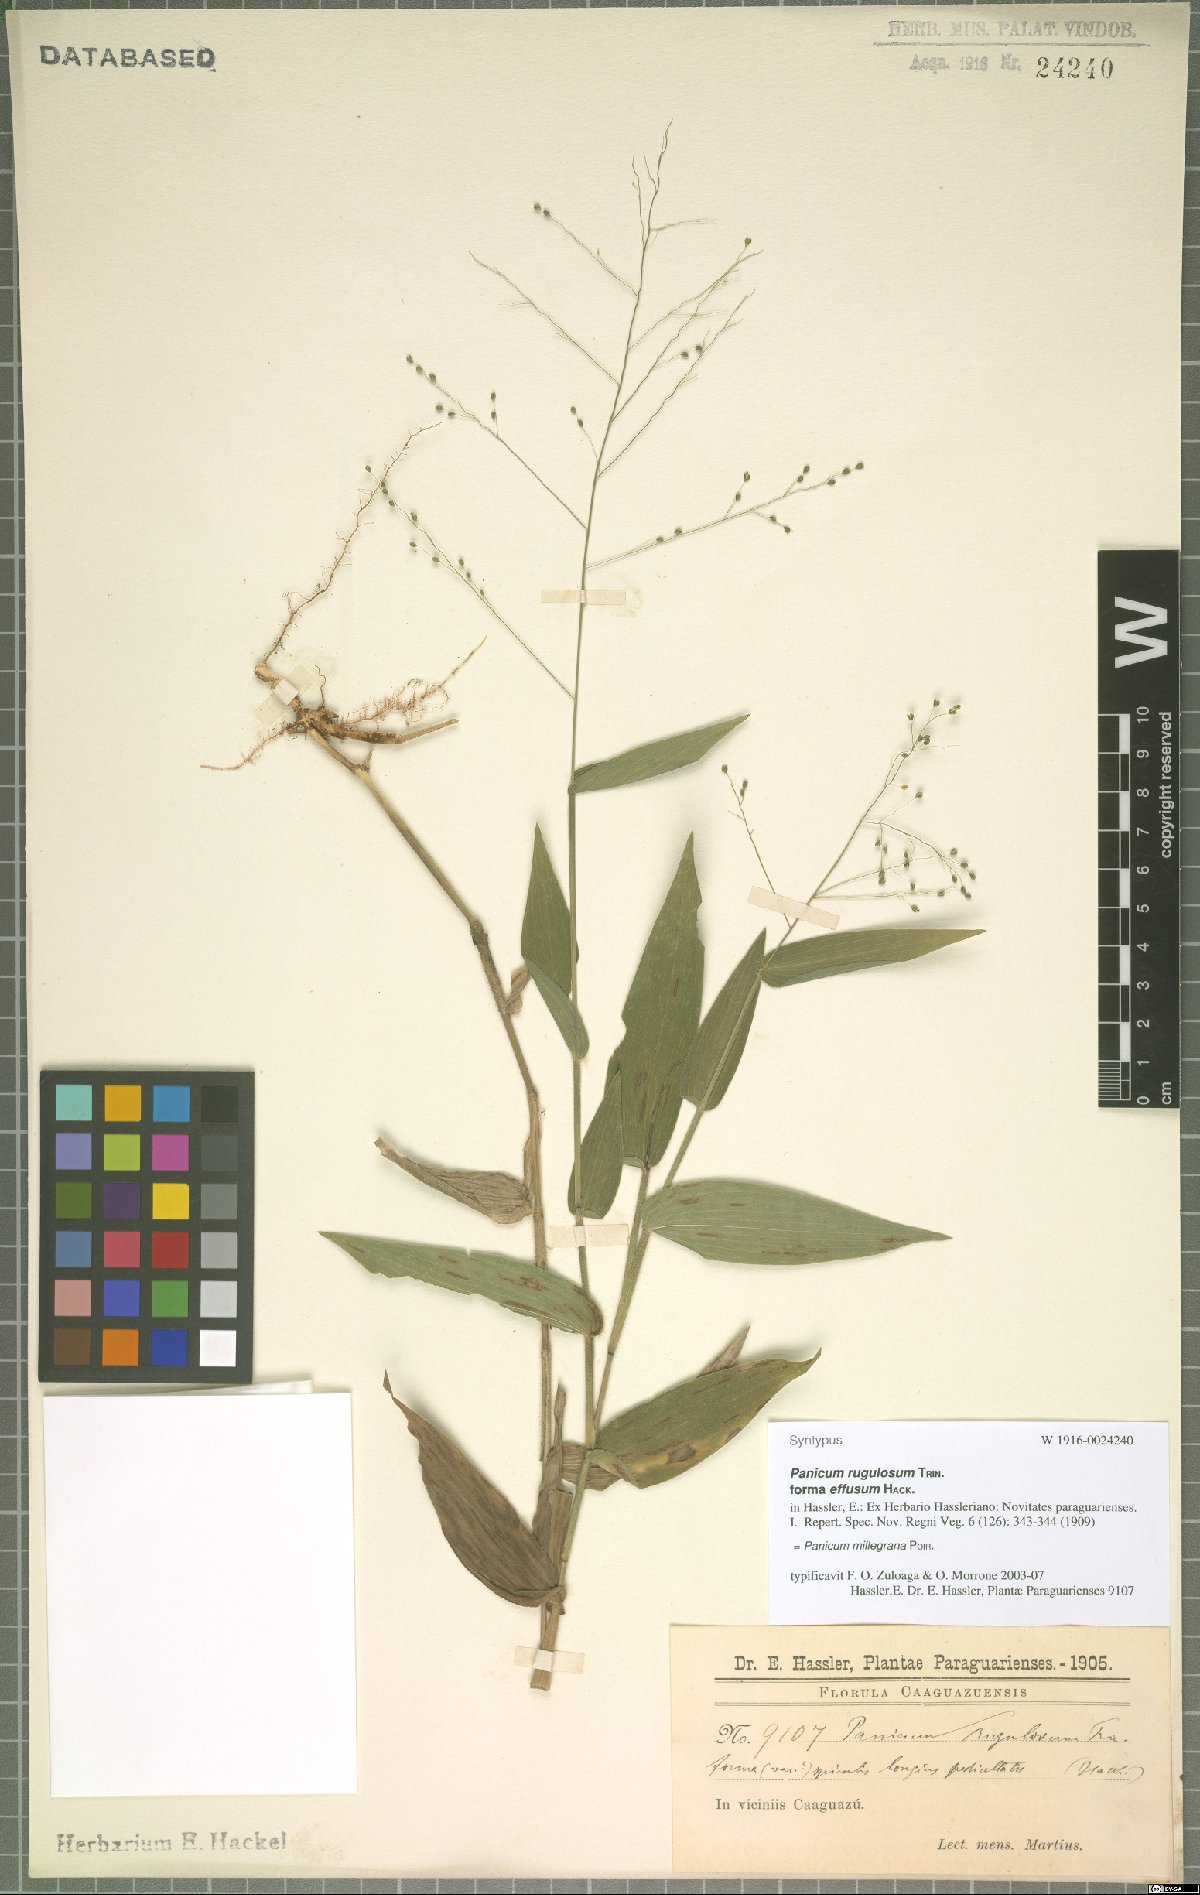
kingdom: Plantae
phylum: Tracheophyta
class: Liliopsida
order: Poales
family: Poaceae
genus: Panicum
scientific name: Panicum millegrana
